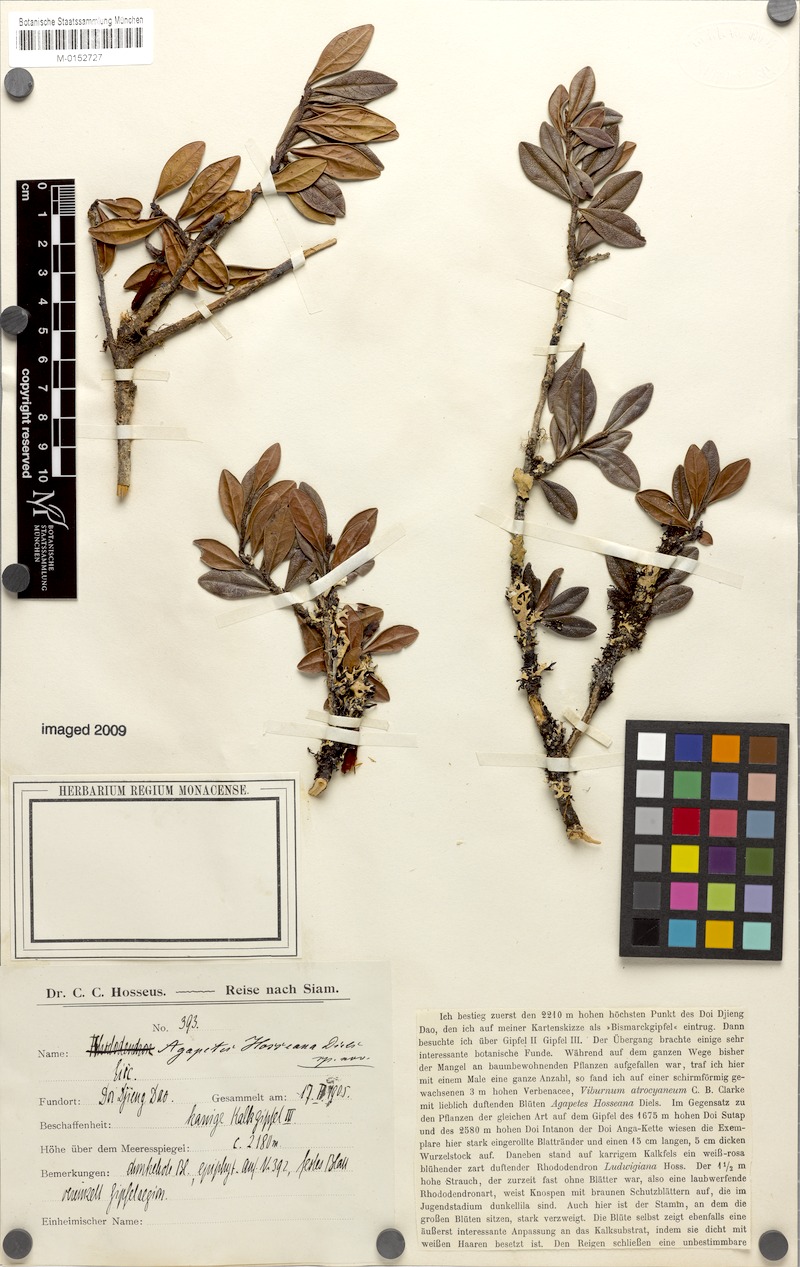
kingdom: Plantae
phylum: Tracheophyta
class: Magnoliopsida
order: Ericales
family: Ericaceae
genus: Agapetes
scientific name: Agapetes hosseana
